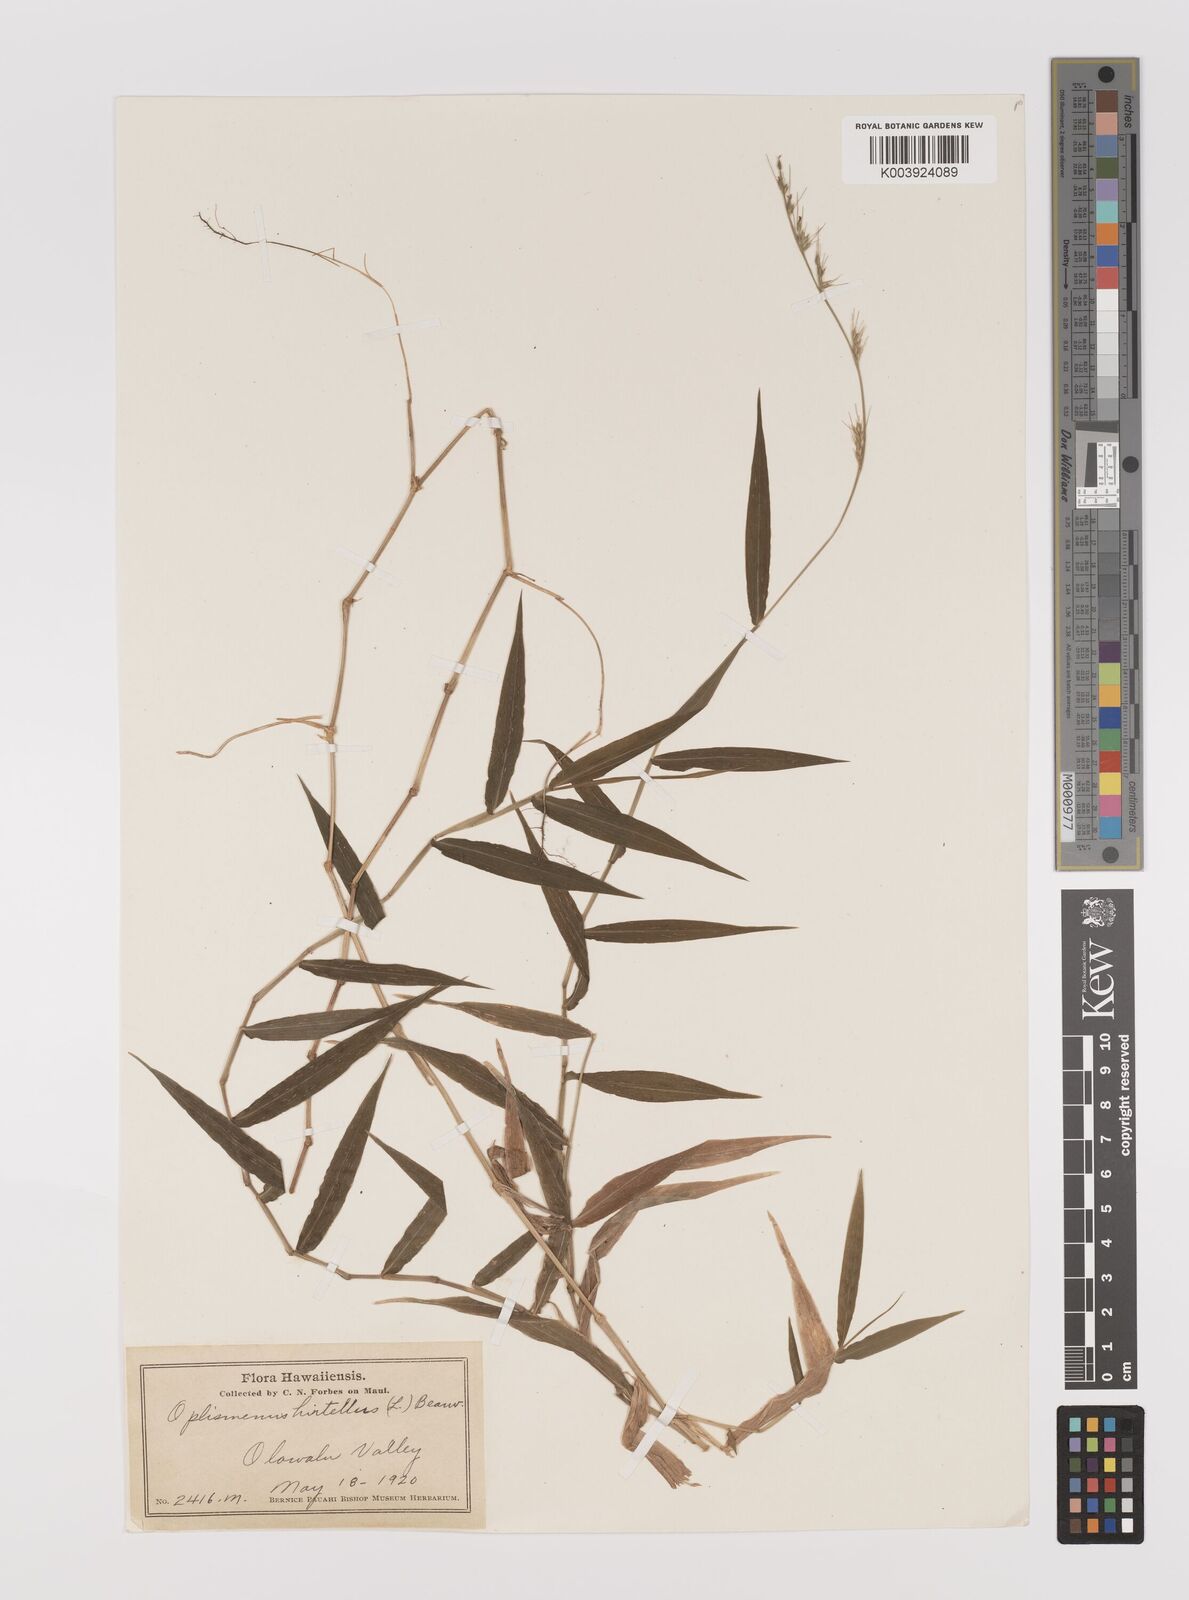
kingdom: Plantae
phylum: Tracheophyta
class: Liliopsida
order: Poales
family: Poaceae
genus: Oplismenus
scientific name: Oplismenus hirtellus
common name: Basketgrass
